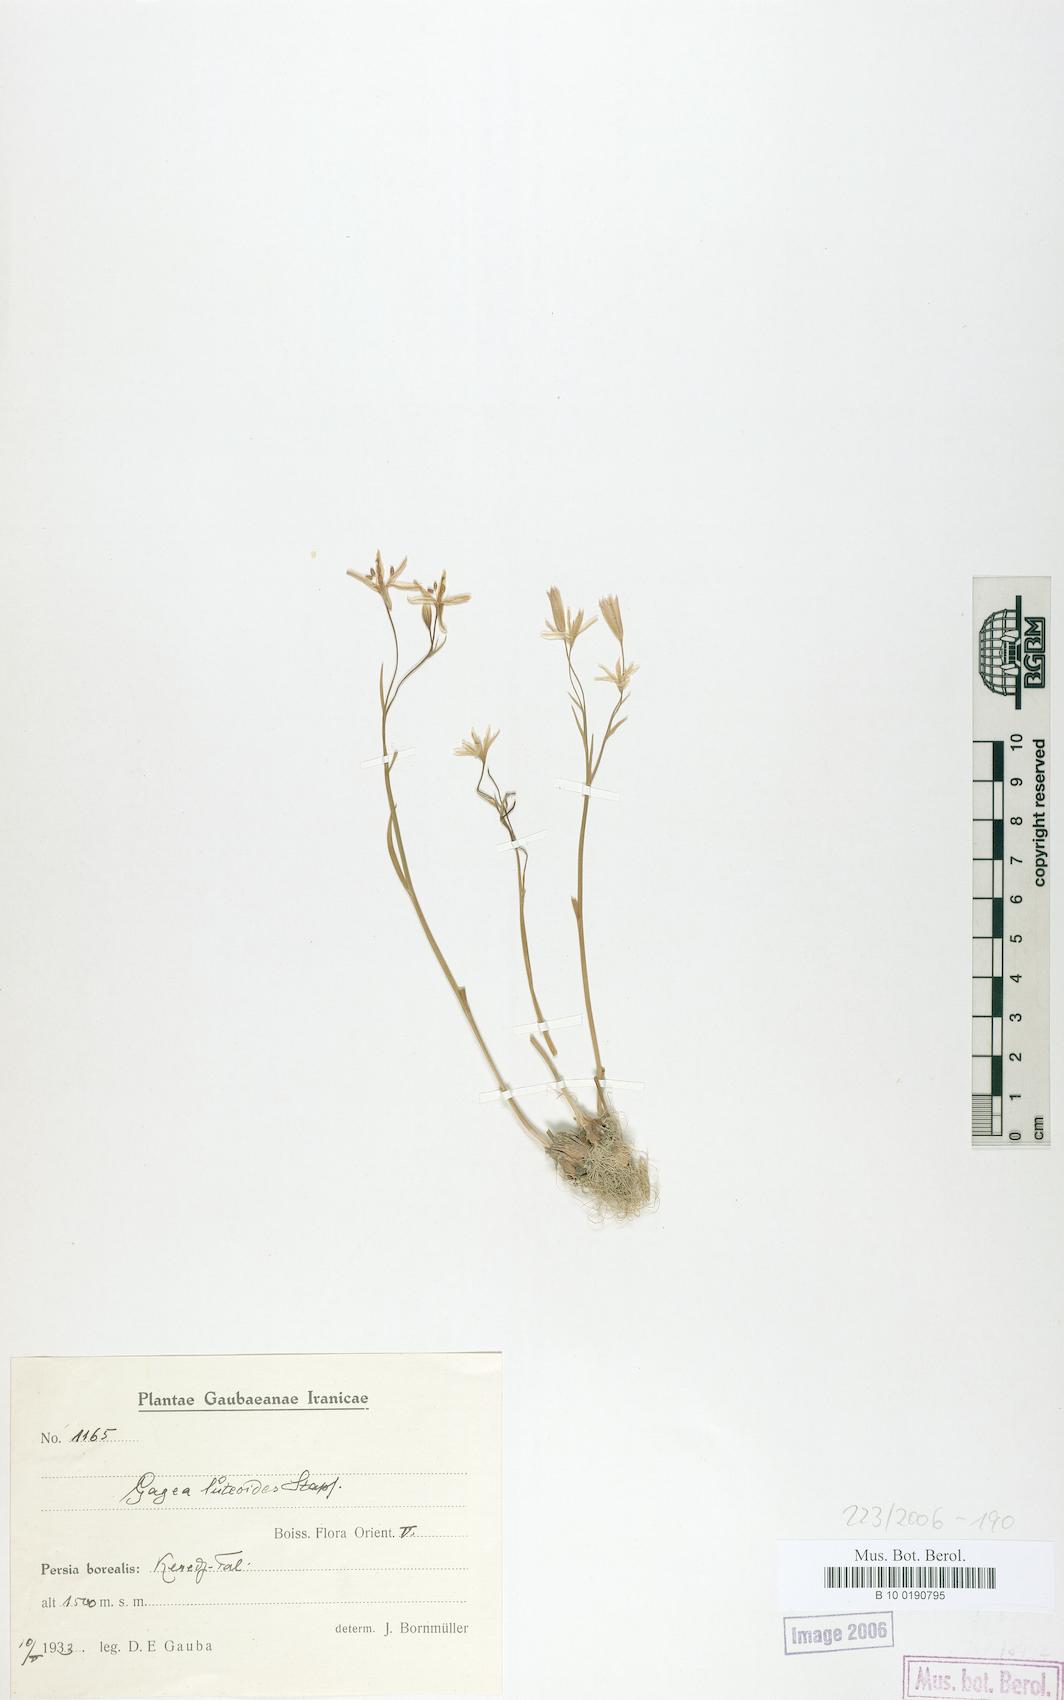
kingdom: Plantae
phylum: Tracheophyta
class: Liliopsida
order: Liliales
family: Liliaceae
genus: Gagea
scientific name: Gagea luteoides
